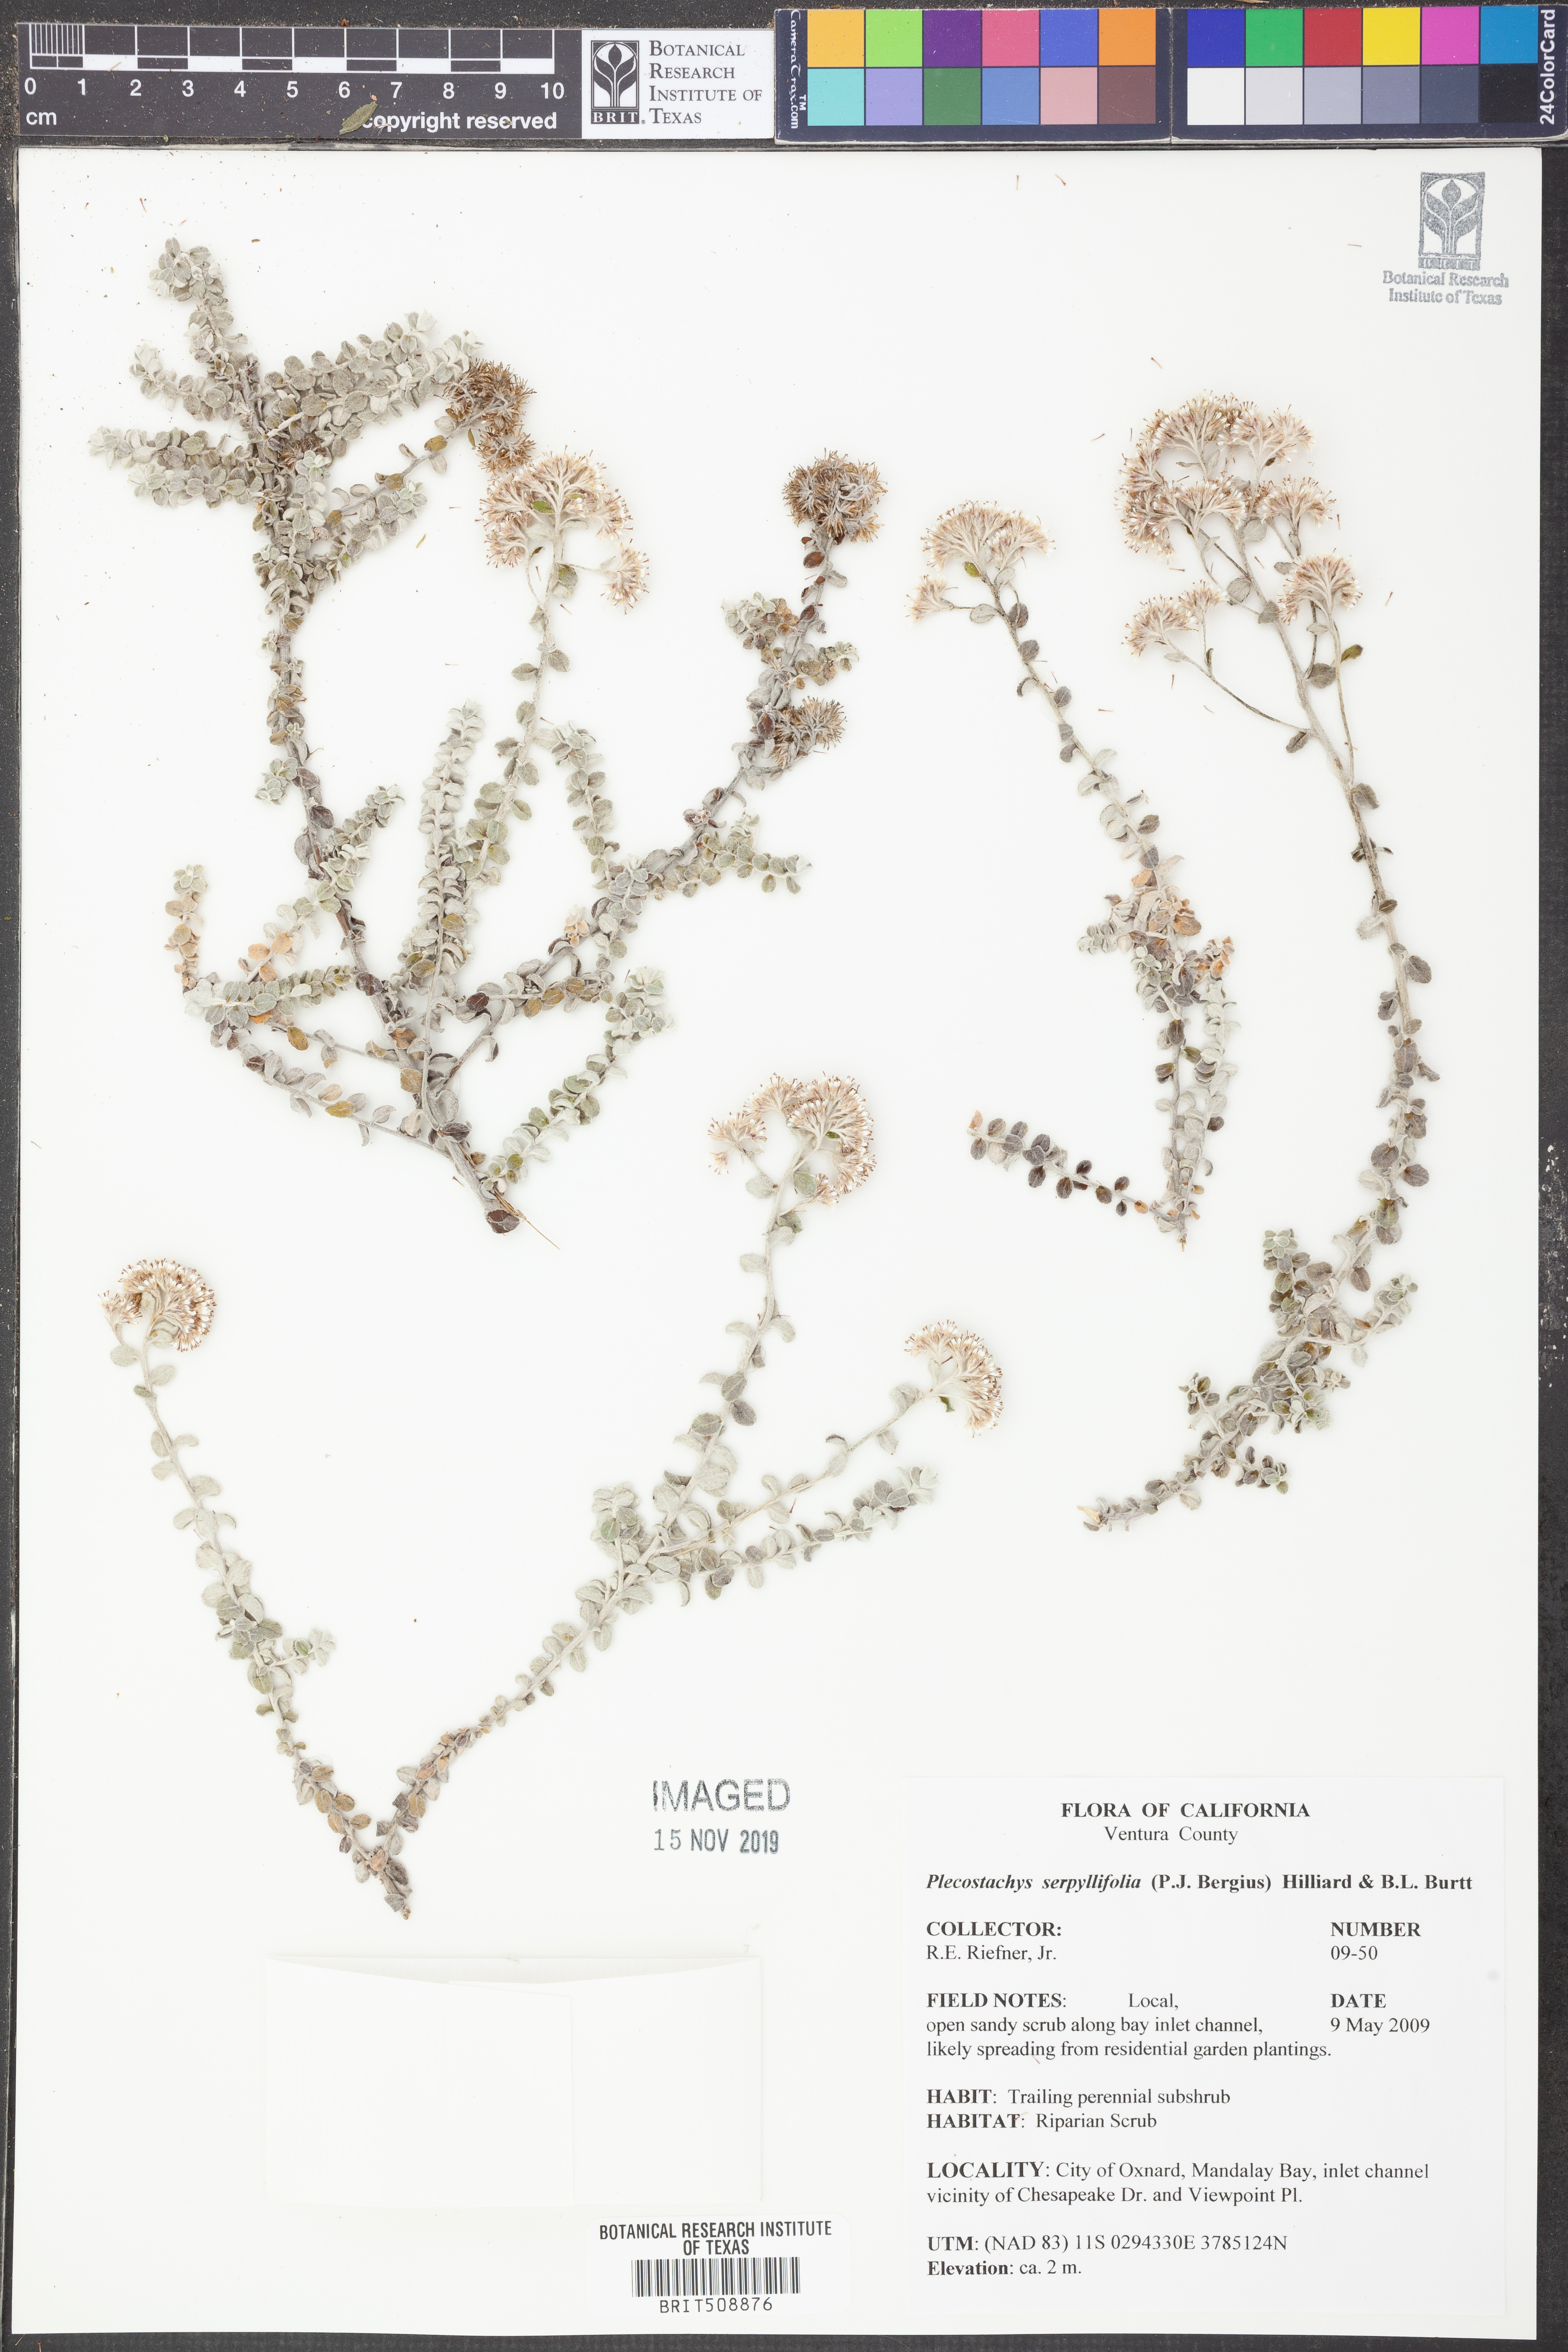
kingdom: Plantae
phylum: Tracheophyta
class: Magnoliopsida
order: Asterales
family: Asteraceae
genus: Plecostachys
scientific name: Plecostachys serpyllifolia
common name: Petite licorice
